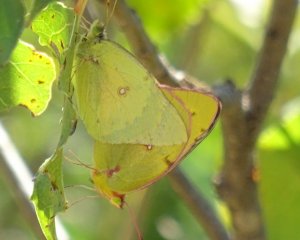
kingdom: Animalia
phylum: Arthropoda
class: Insecta
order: Lepidoptera
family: Pieridae
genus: Colias
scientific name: Colias philodice
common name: Clouded Sulphur
